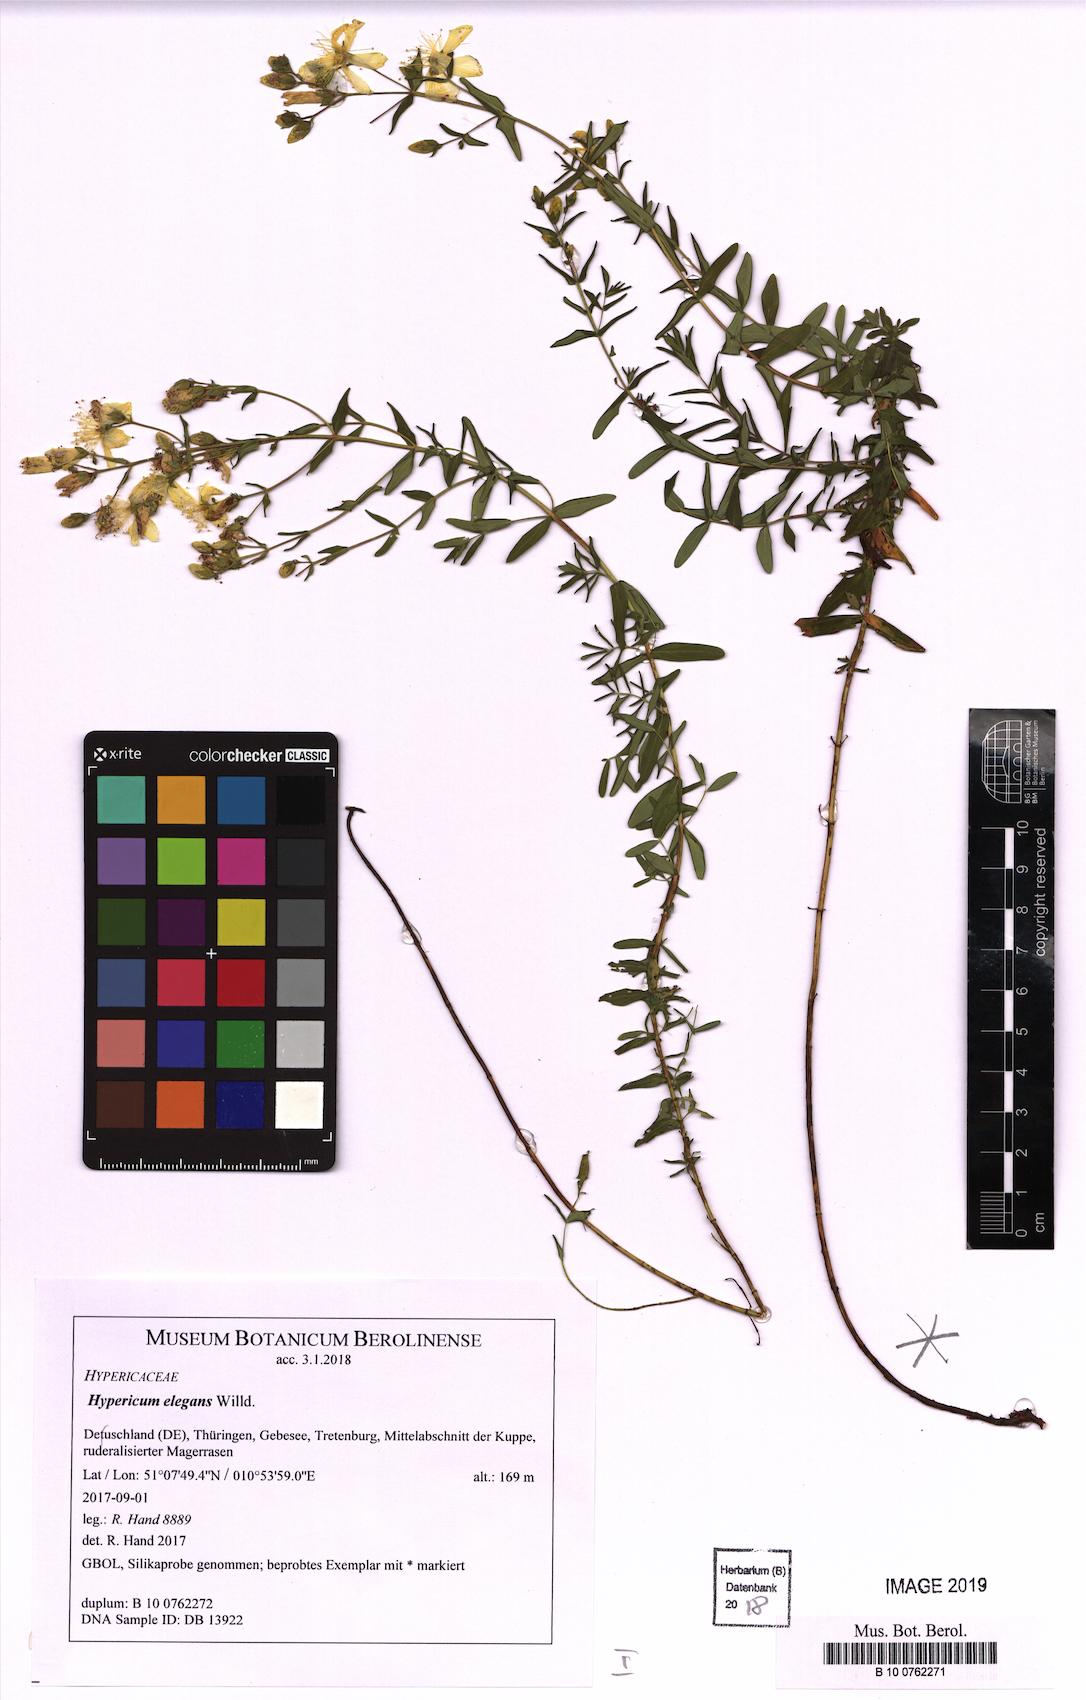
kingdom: Plantae
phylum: Tracheophyta
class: Magnoliopsida
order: Malpighiales
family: Hypericaceae
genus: Hypericum
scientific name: Hypericum elegans
